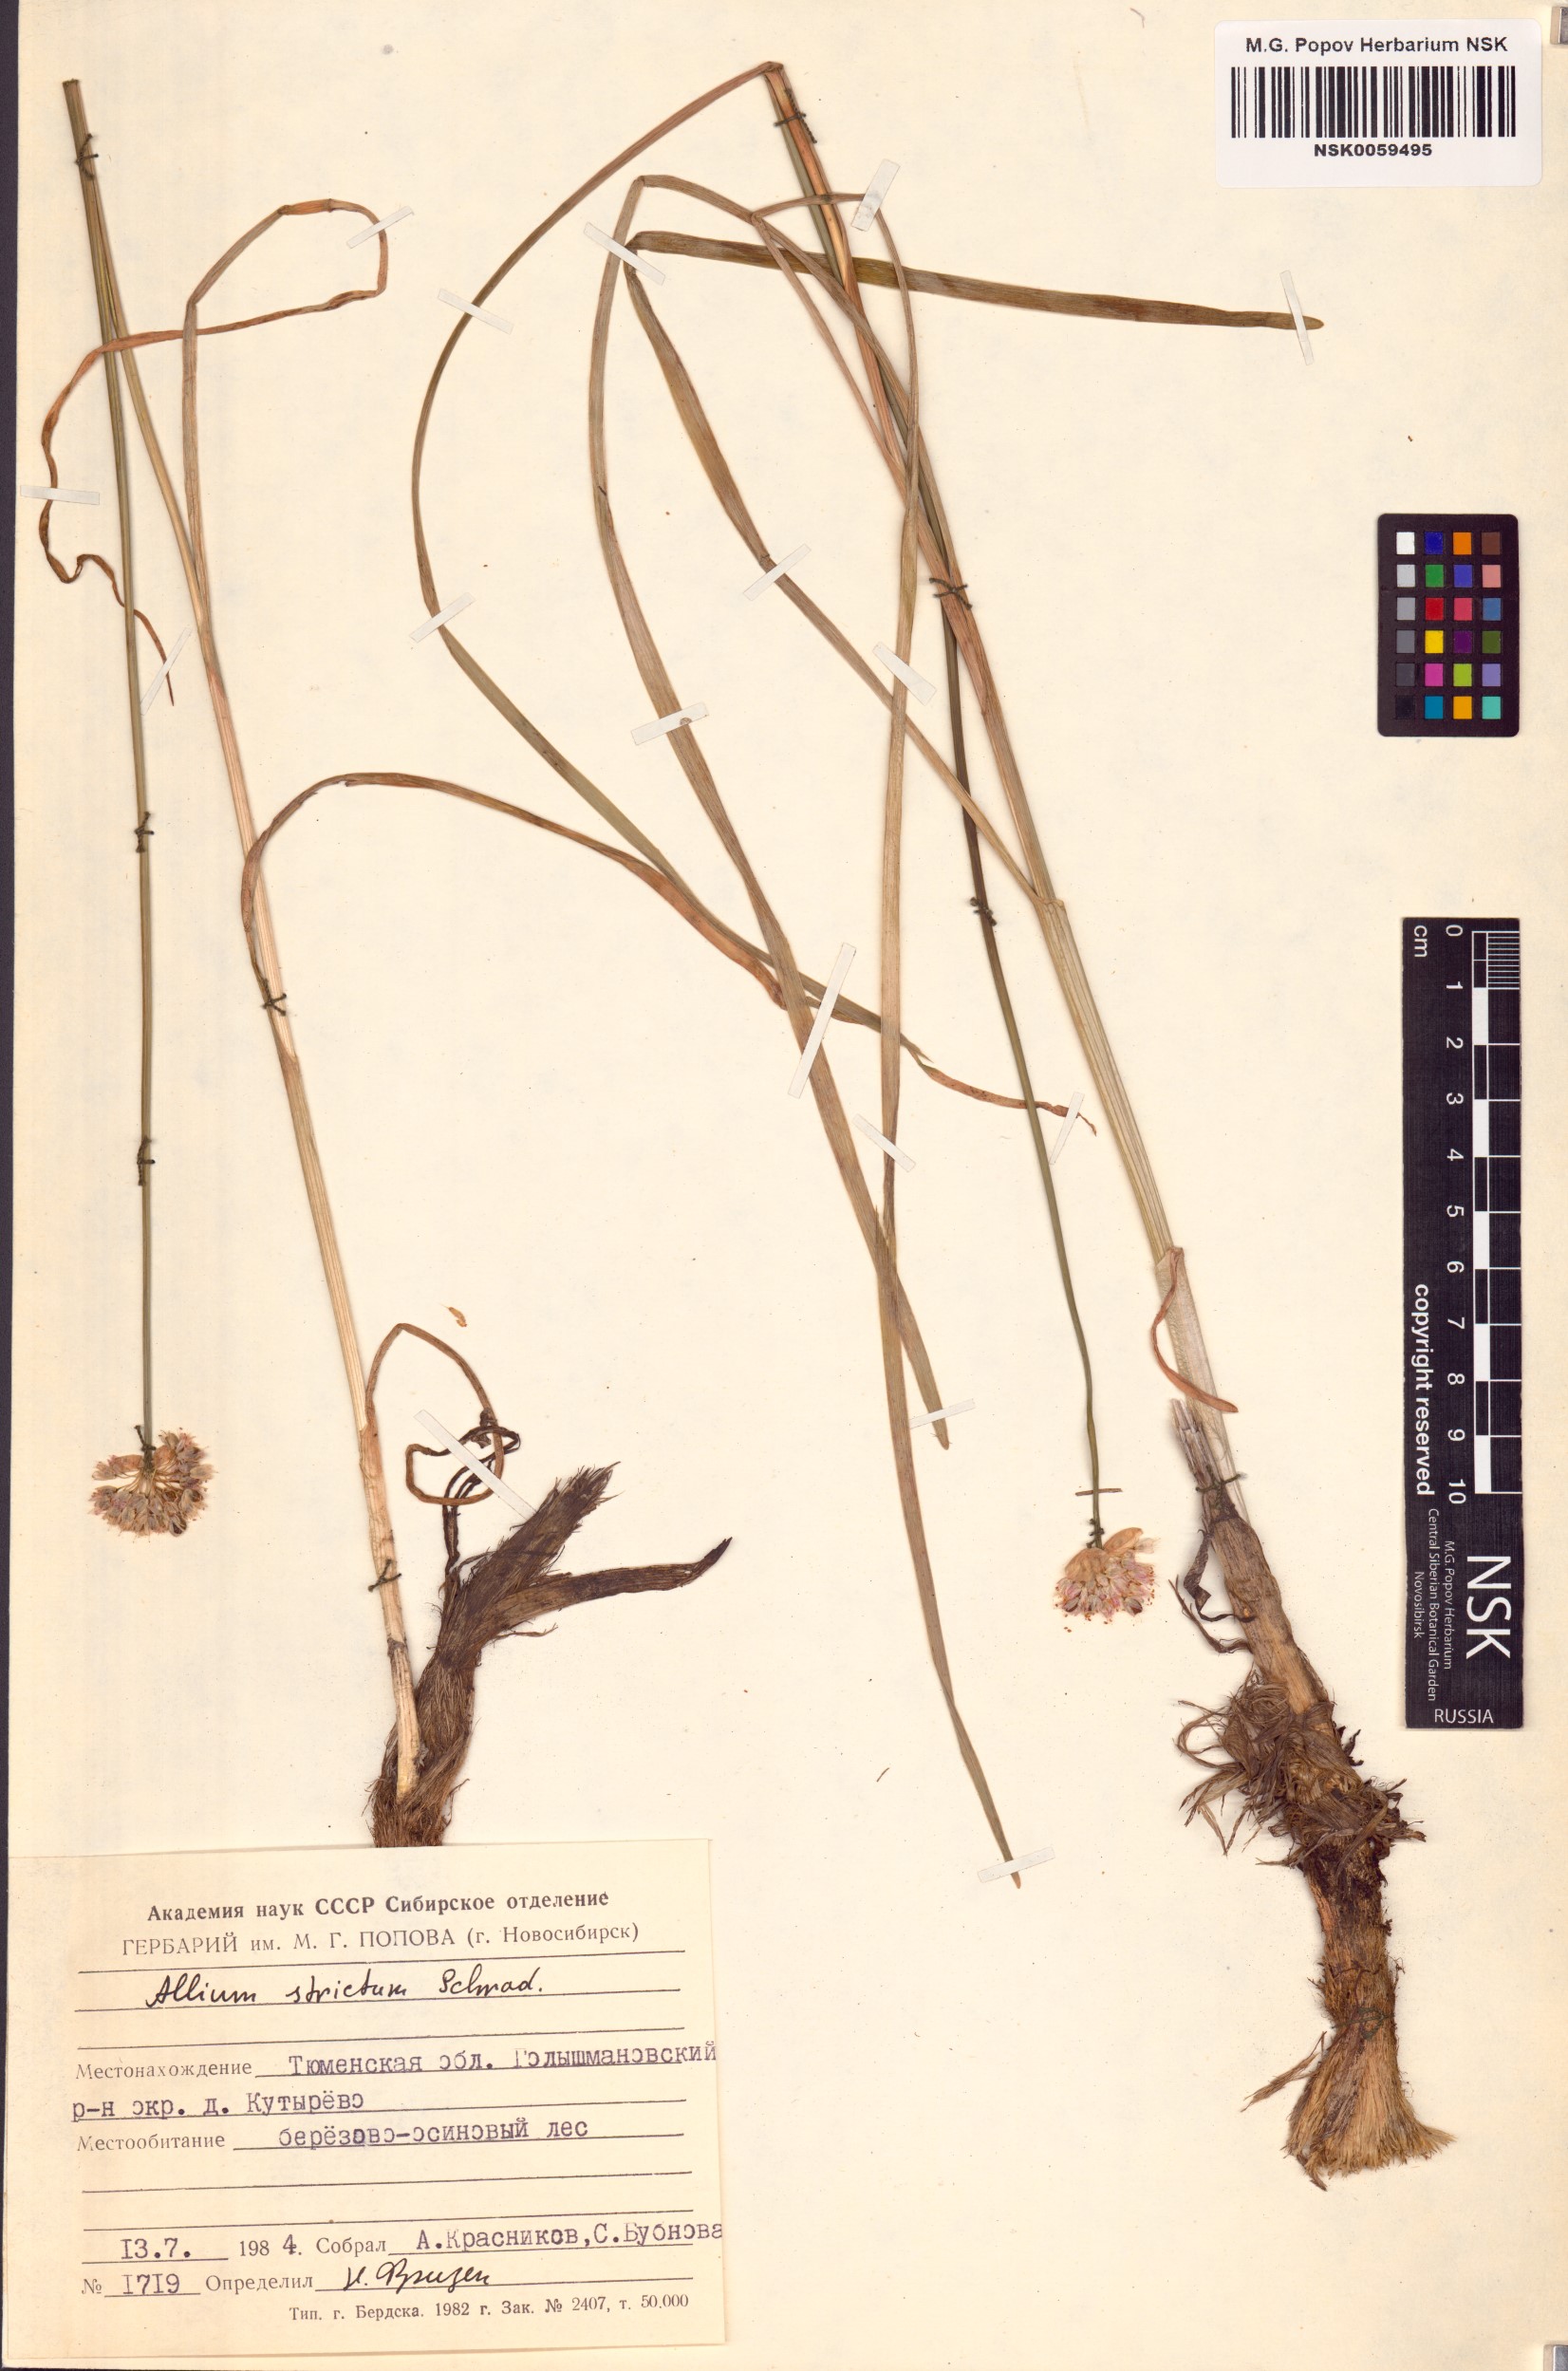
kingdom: Plantae
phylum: Tracheophyta
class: Liliopsida
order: Asparagales
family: Amaryllidaceae
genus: Allium
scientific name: Allium strictum
